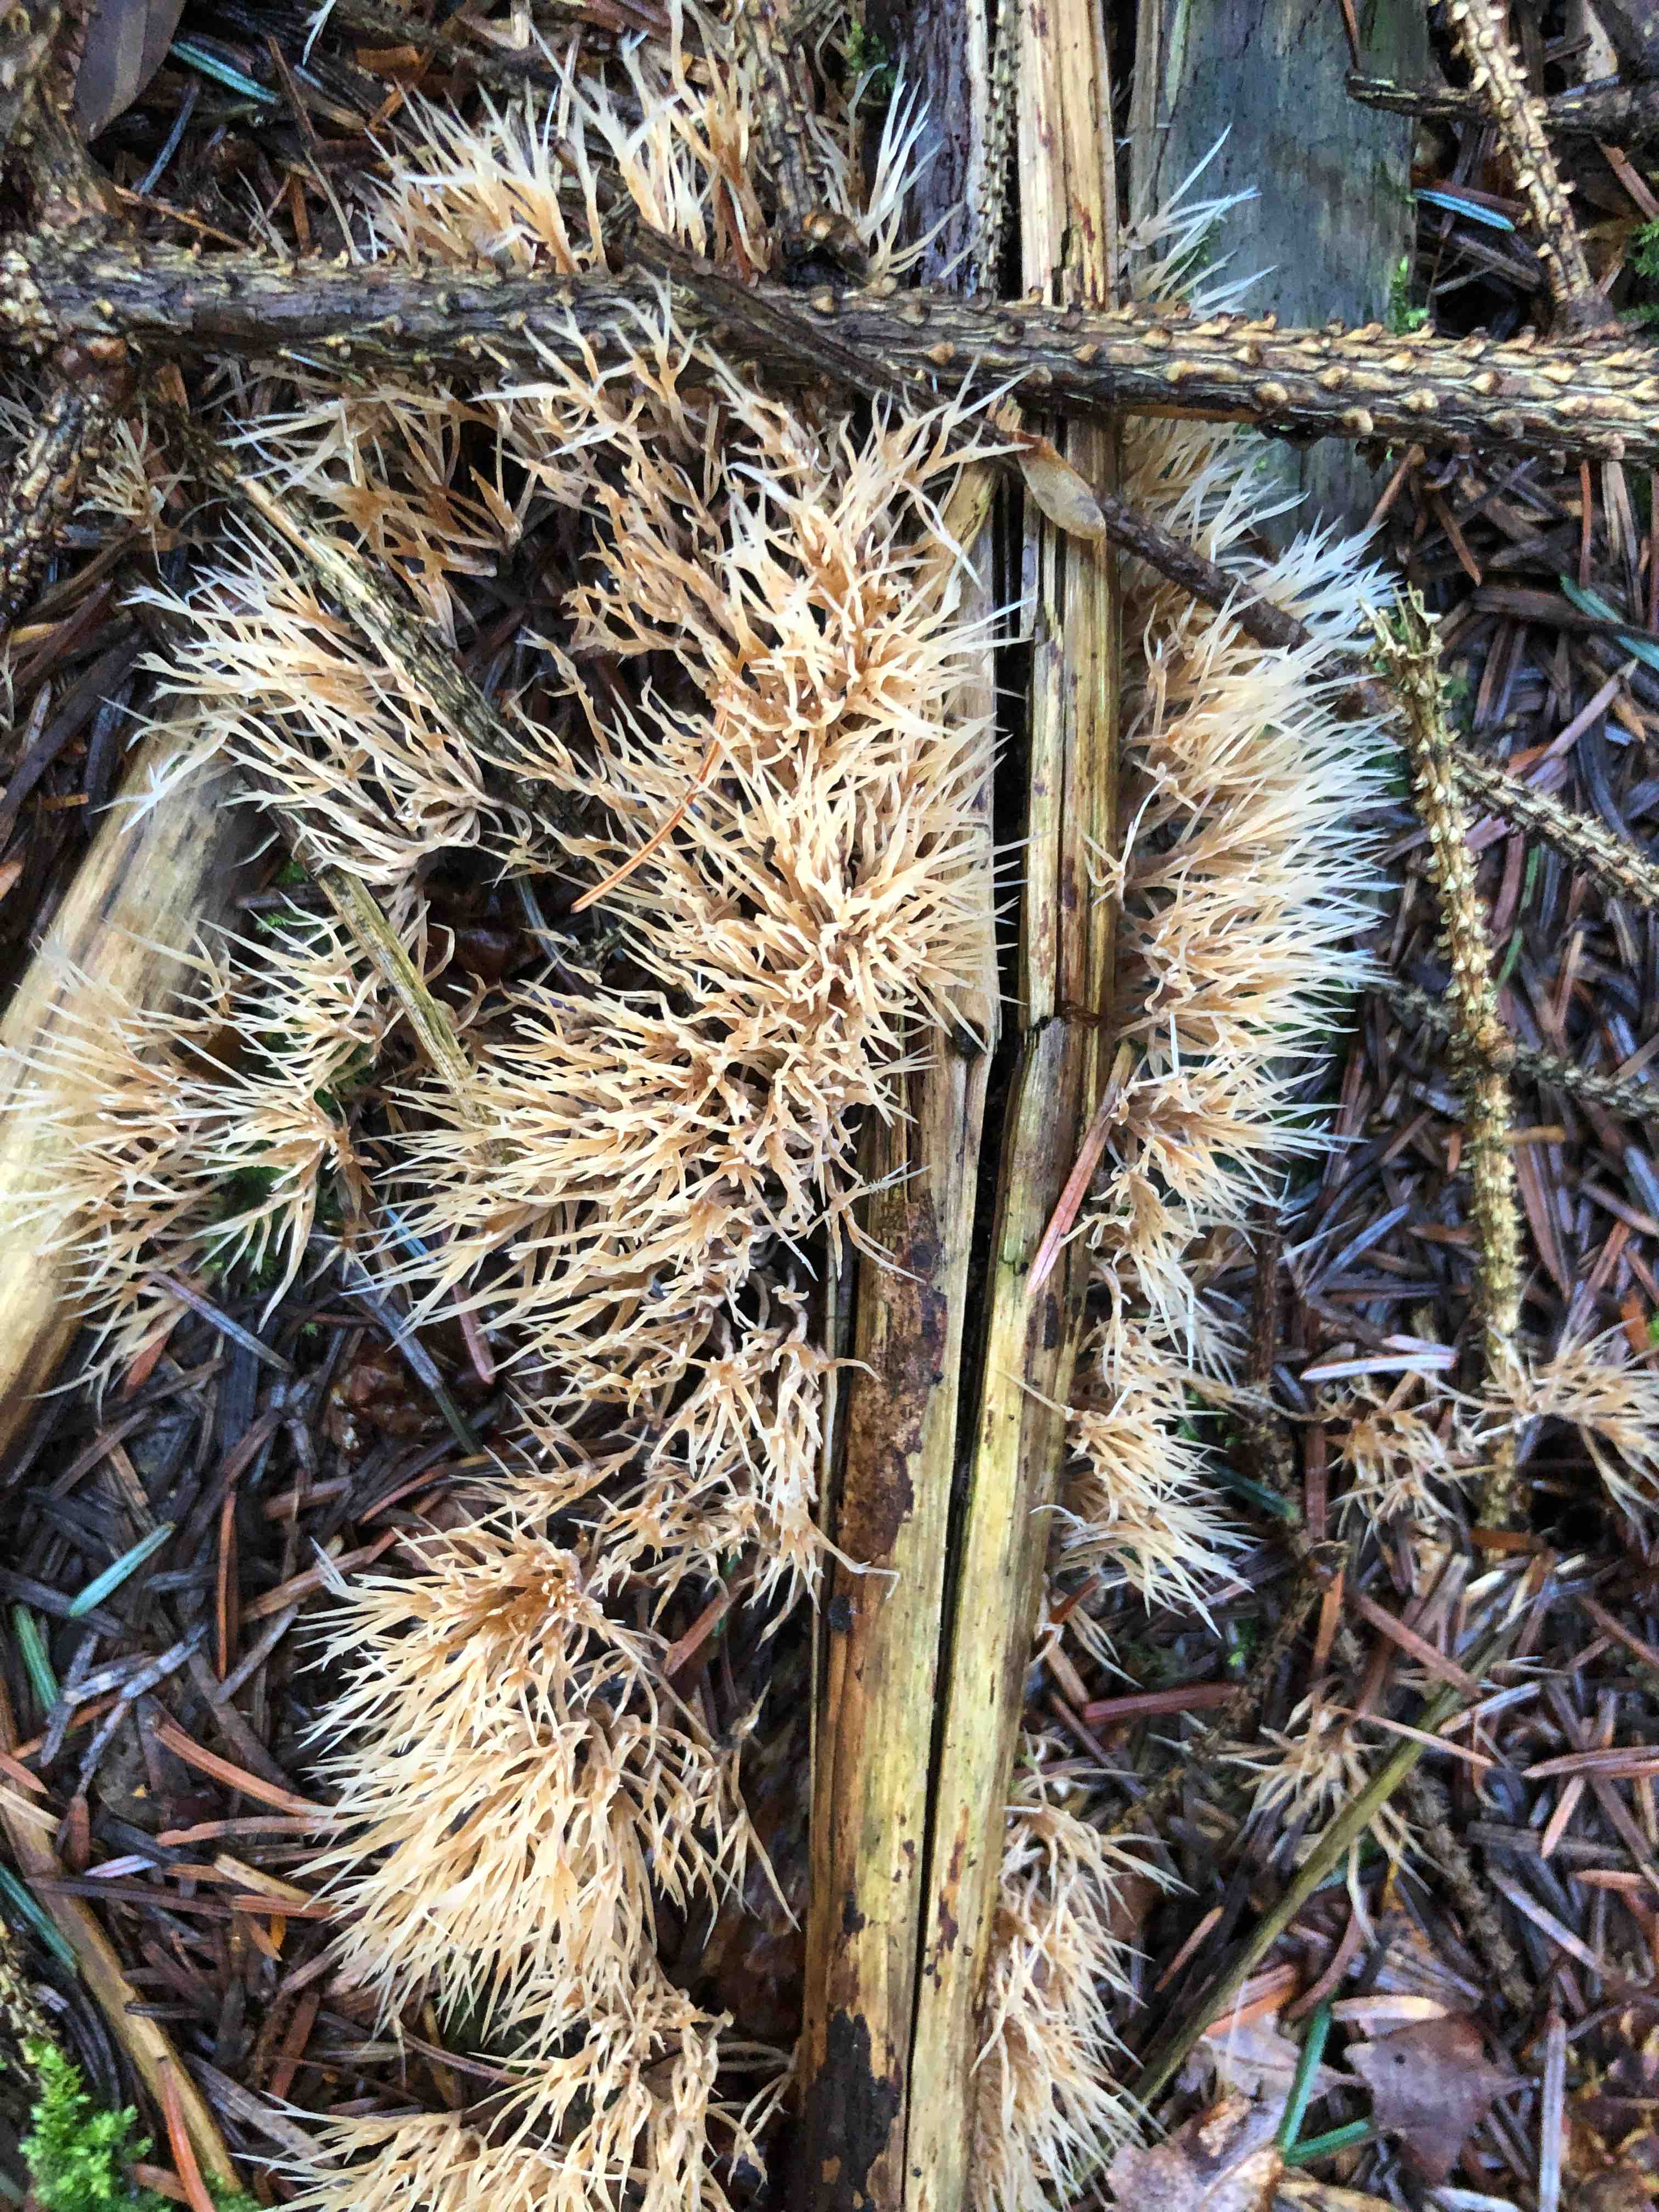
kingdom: Fungi
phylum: Basidiomycota
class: Agaricomycetes
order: Agaricales
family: Pterulaceae
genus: Pterula
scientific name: Pterula multifida
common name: busket fjerkølle
